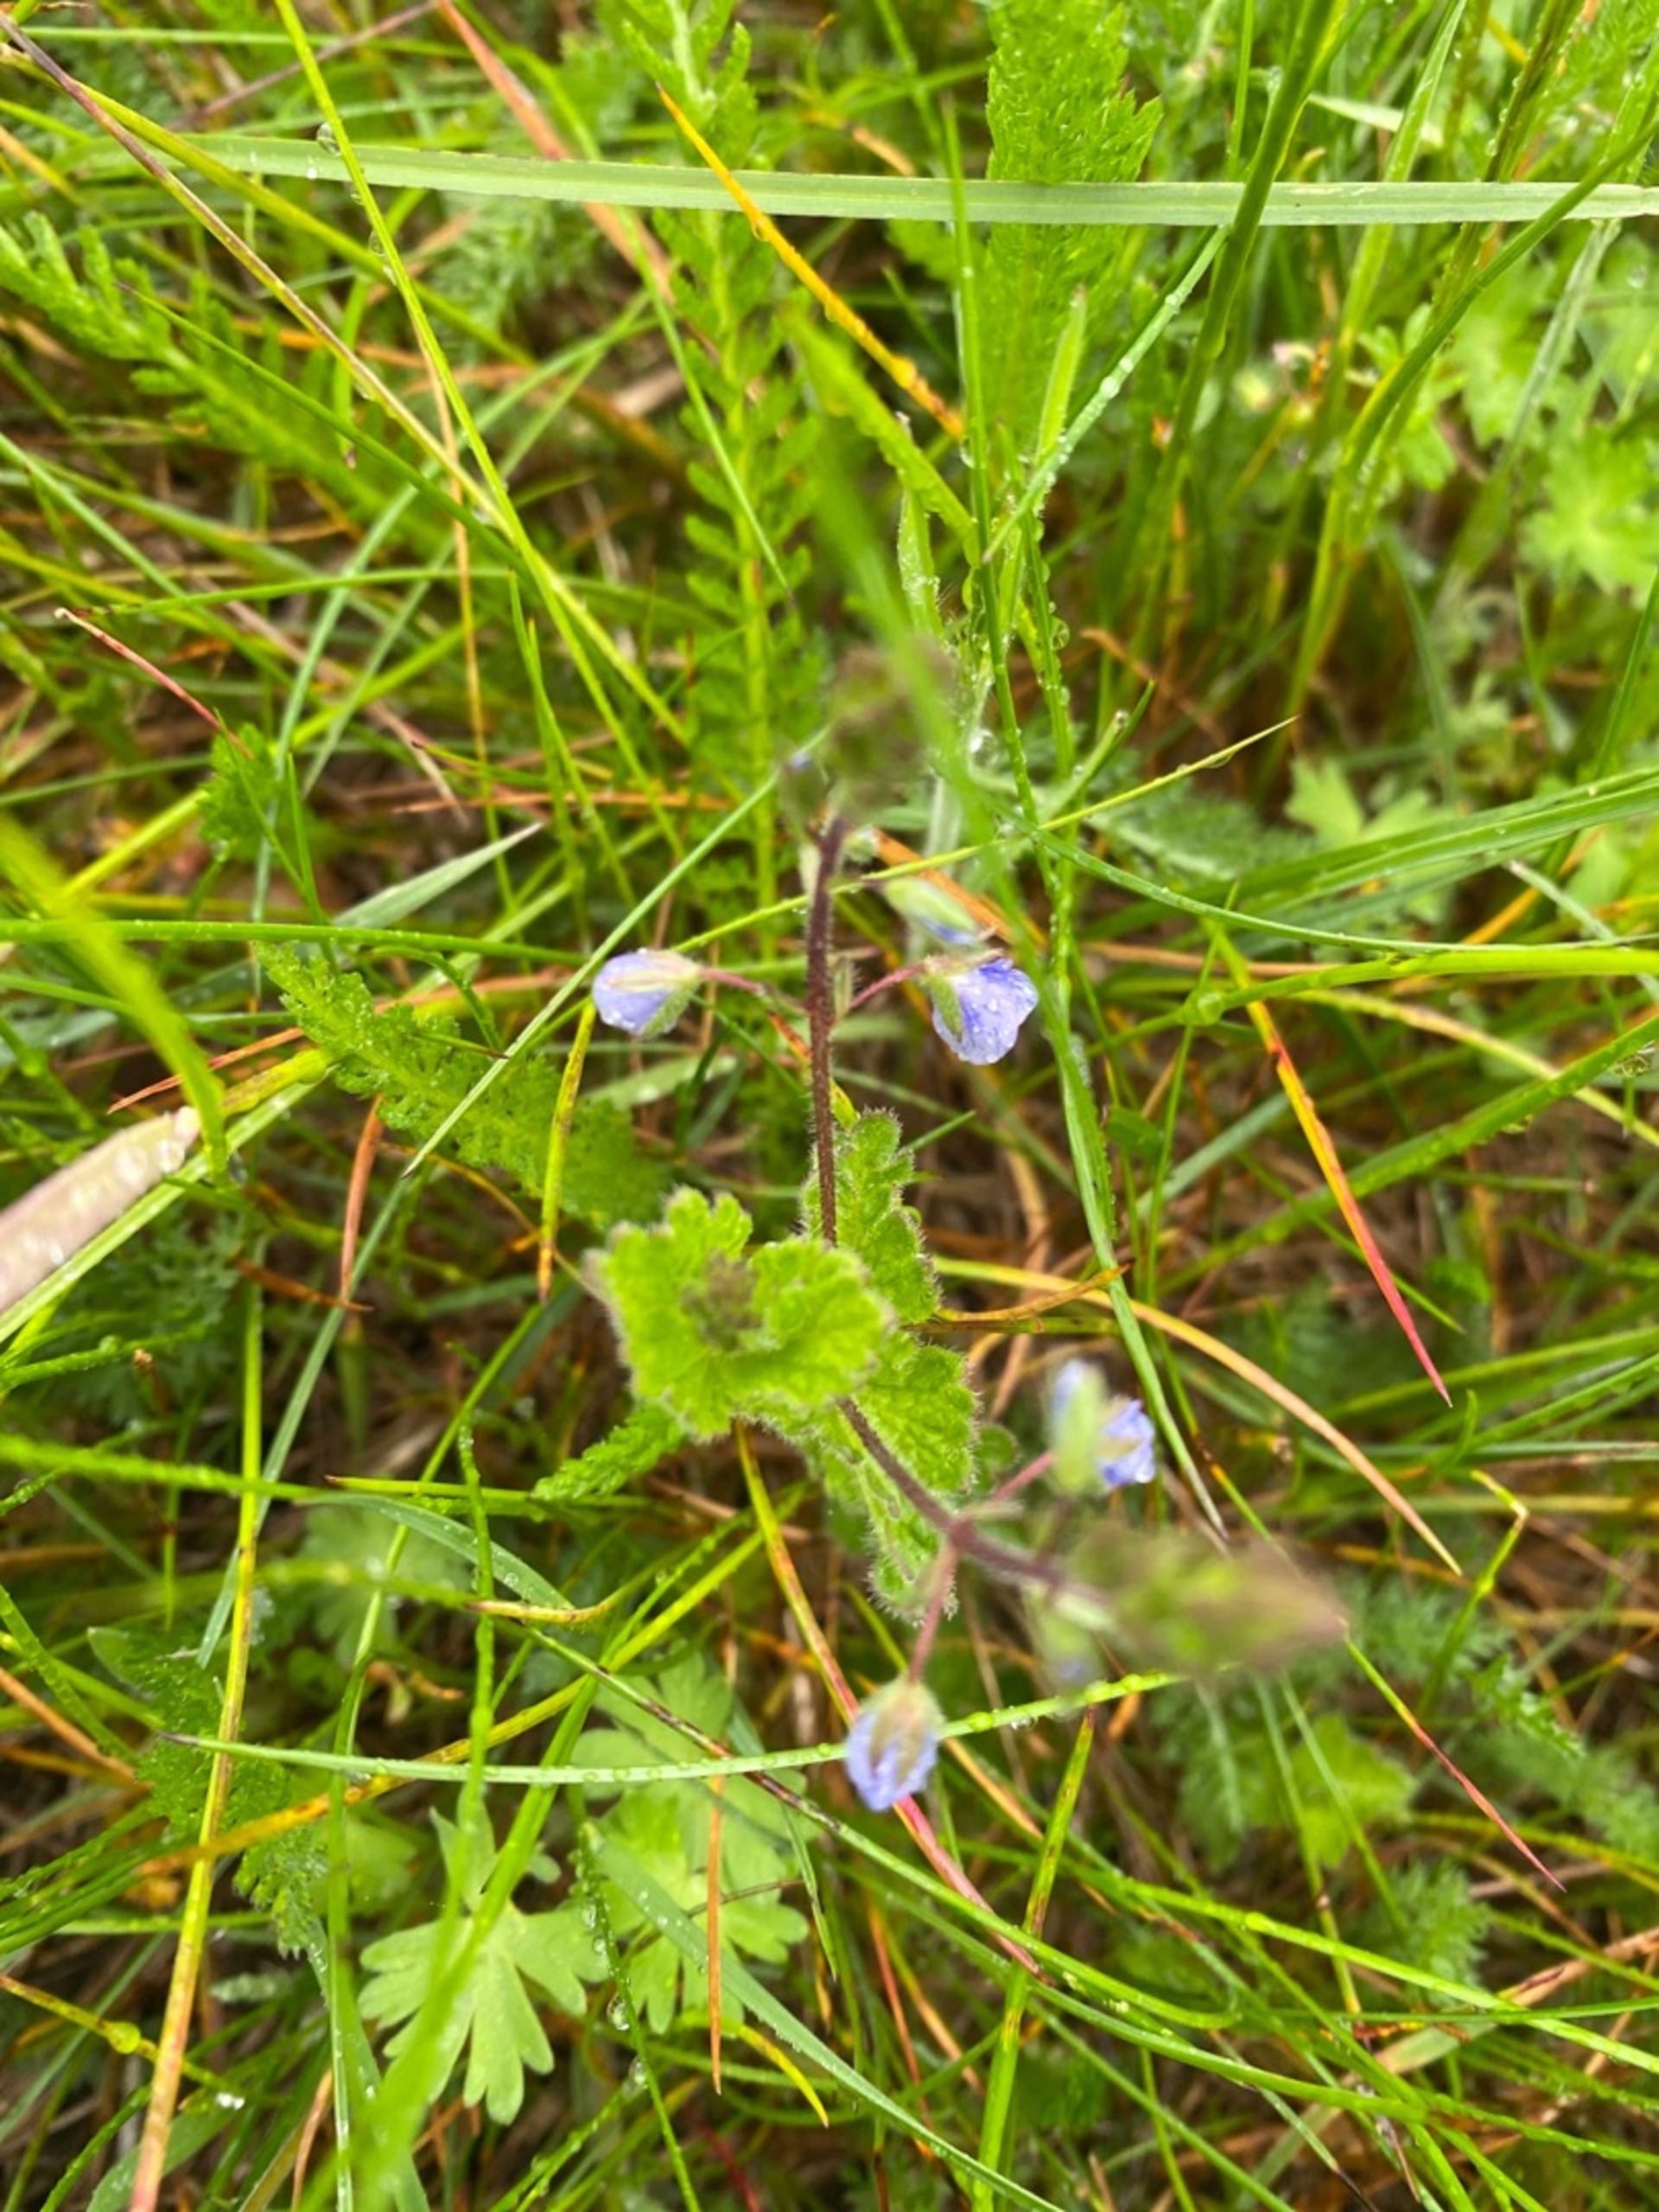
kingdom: Plantae
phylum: Tracheophyta
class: Magnoliopsida
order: Lamiales
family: Plantaginaceae
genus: Veronica
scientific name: Veronica chamaedrys
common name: Tveskægget ærenpris
